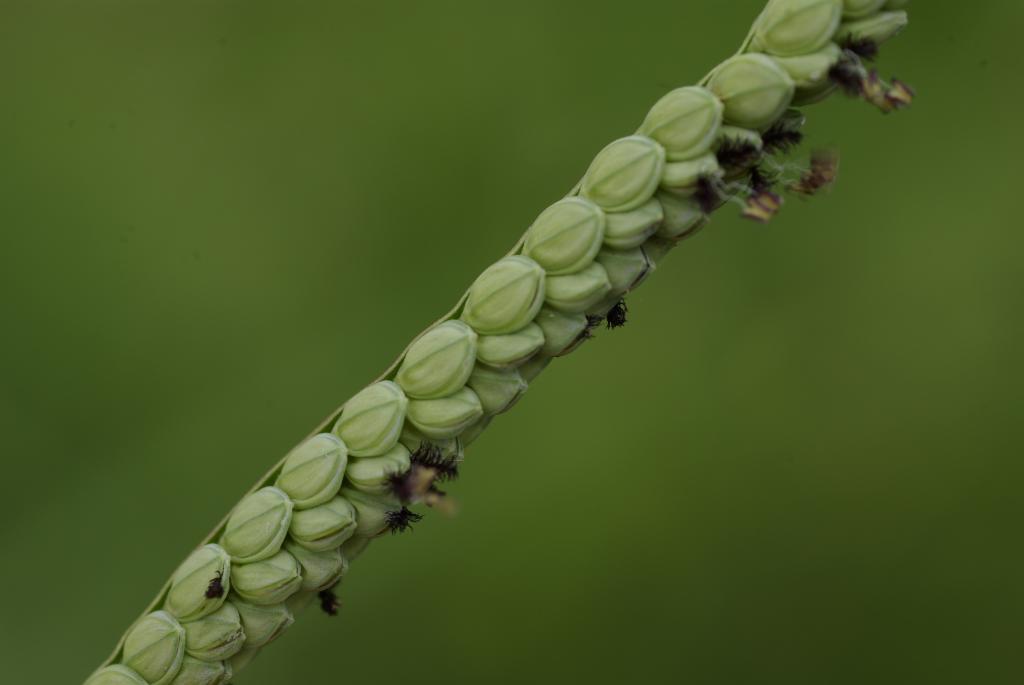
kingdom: Plantae
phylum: Tracheophyta
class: Liliopsida
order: Poales
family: Poaceae
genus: Paspalum
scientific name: Paspalum scrobiculatum
